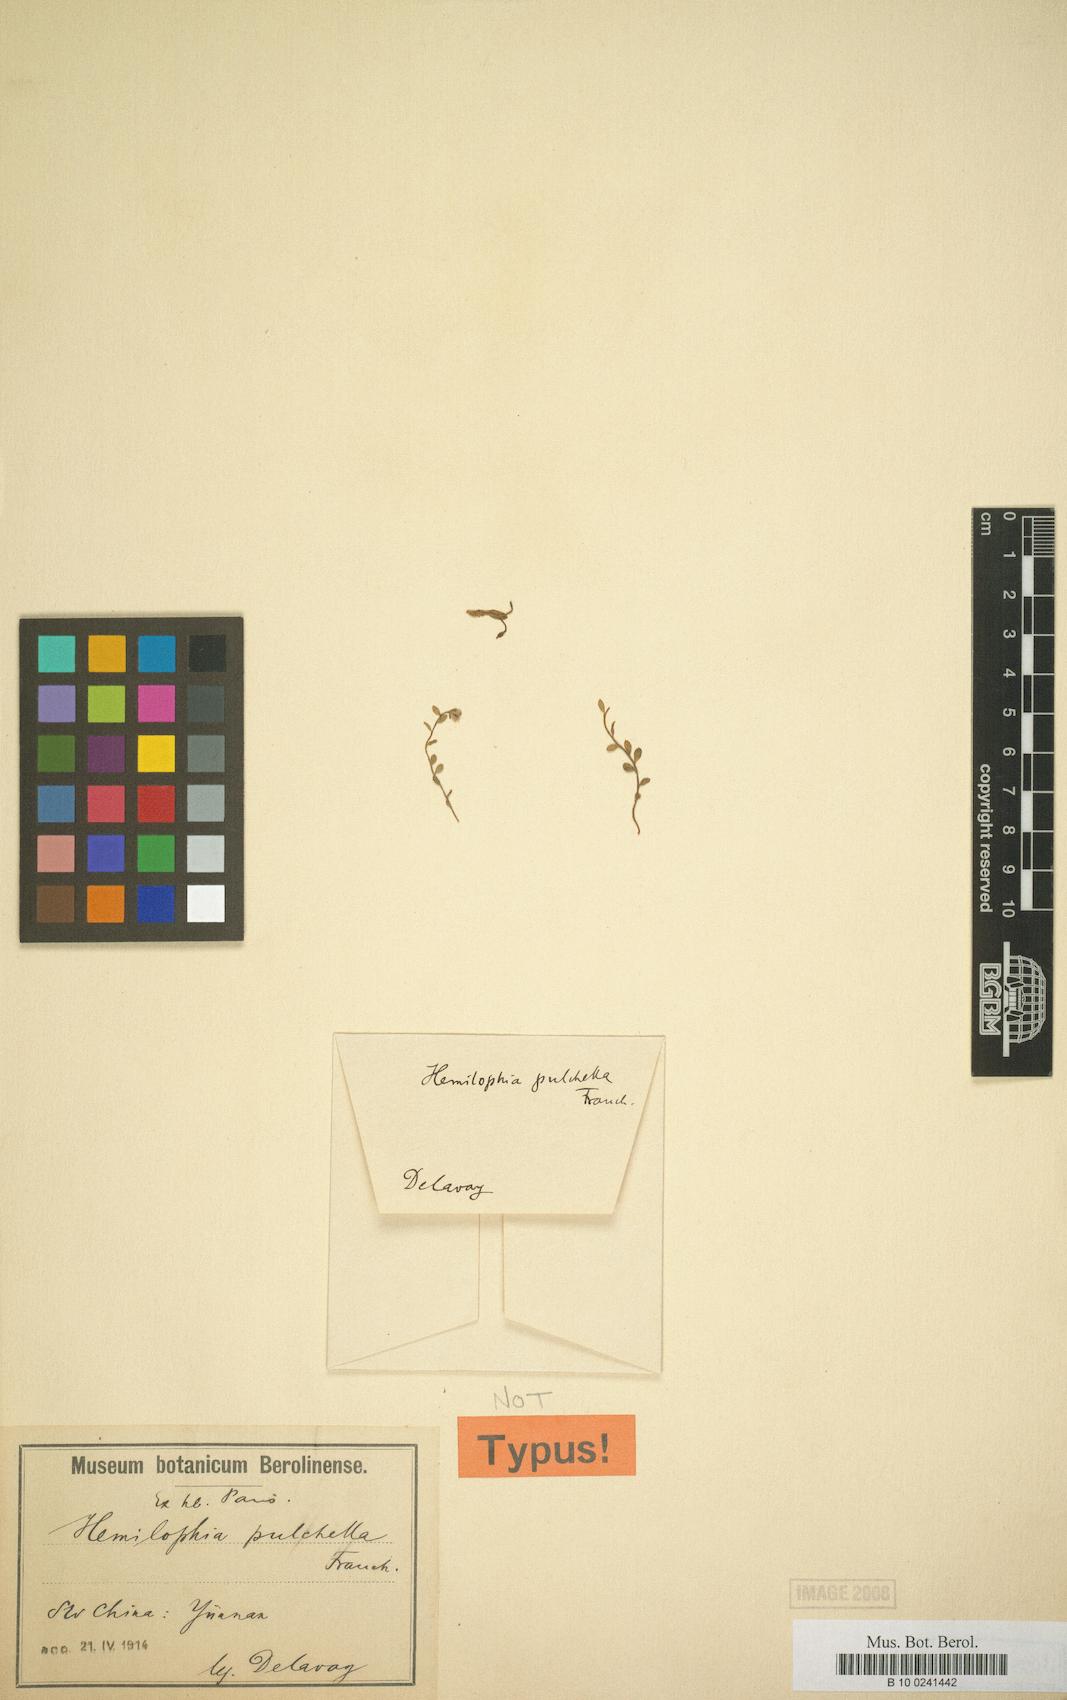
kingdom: Plantae
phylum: Tracheophyta
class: Magnoliopsida
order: Brassicales
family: Brassicaceae
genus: Hemilophia
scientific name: Hemilophia pulchella
